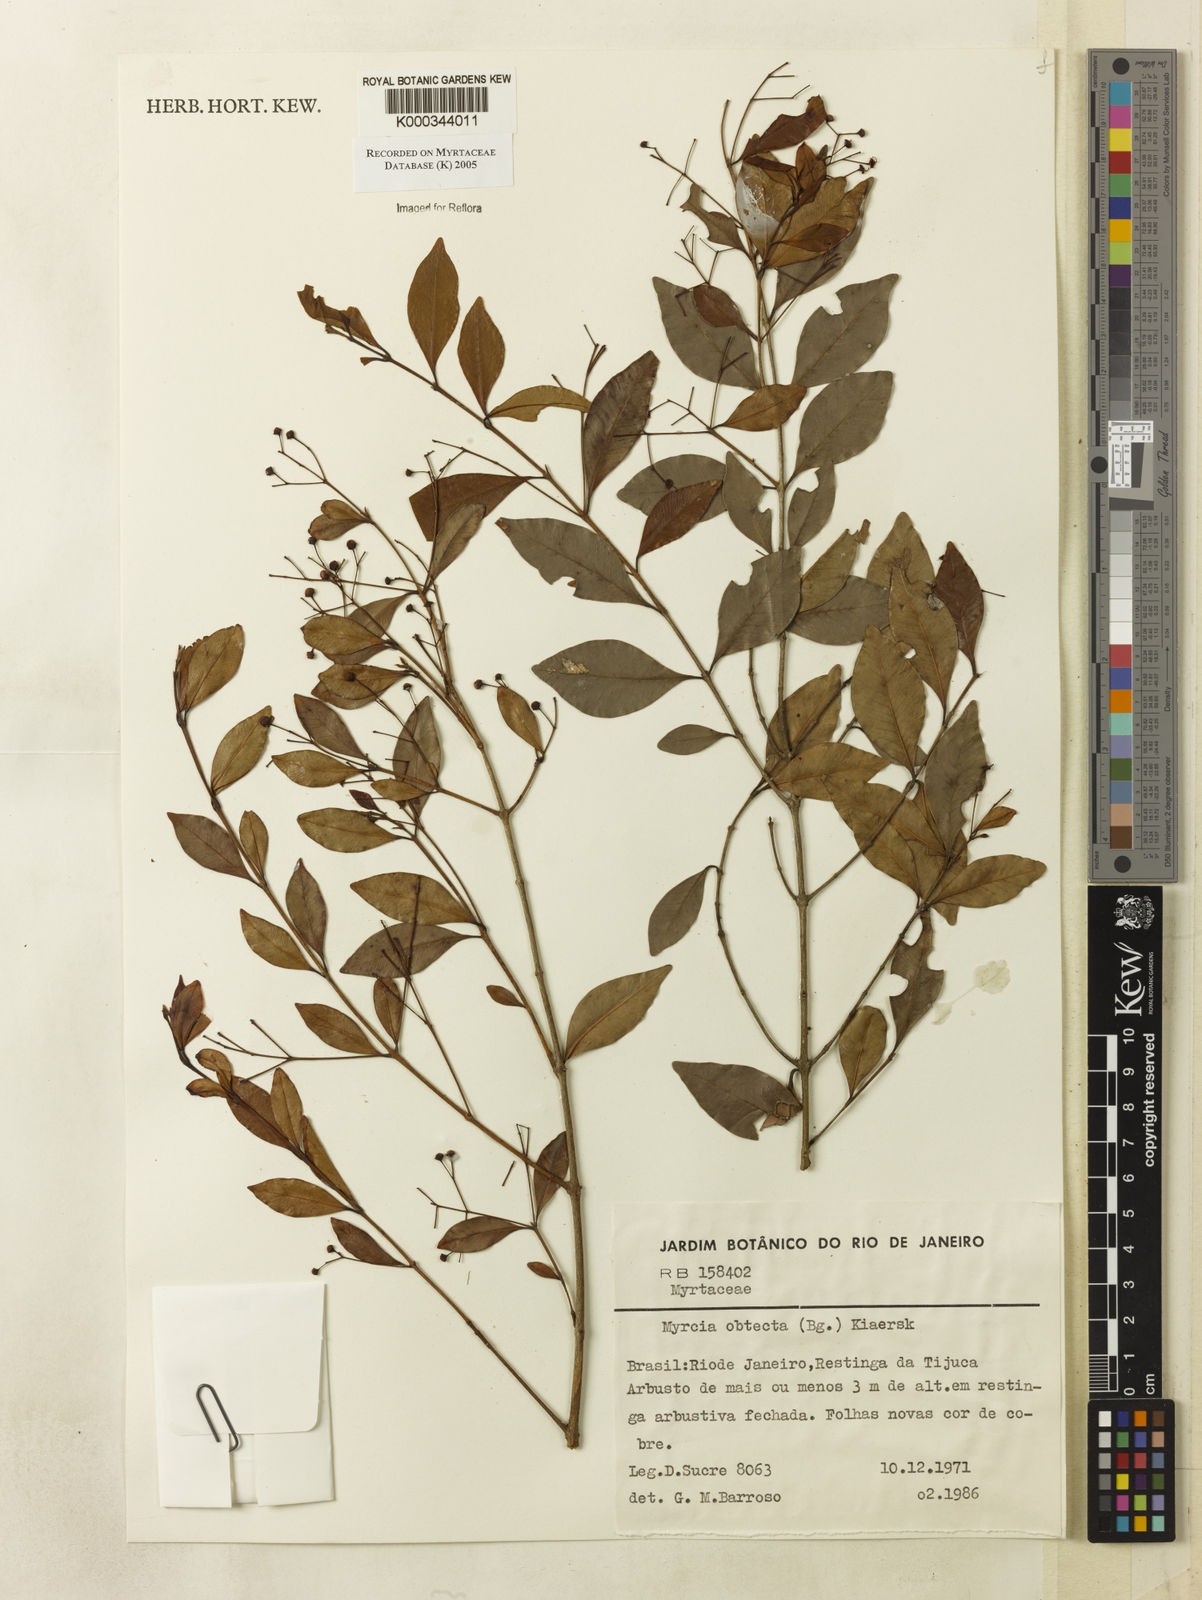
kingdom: Plantae
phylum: Tracheophyta
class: Magnoliopsida
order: Myrtales
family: Myrtaceae
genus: Myrcia
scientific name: Myrcia guianensis
